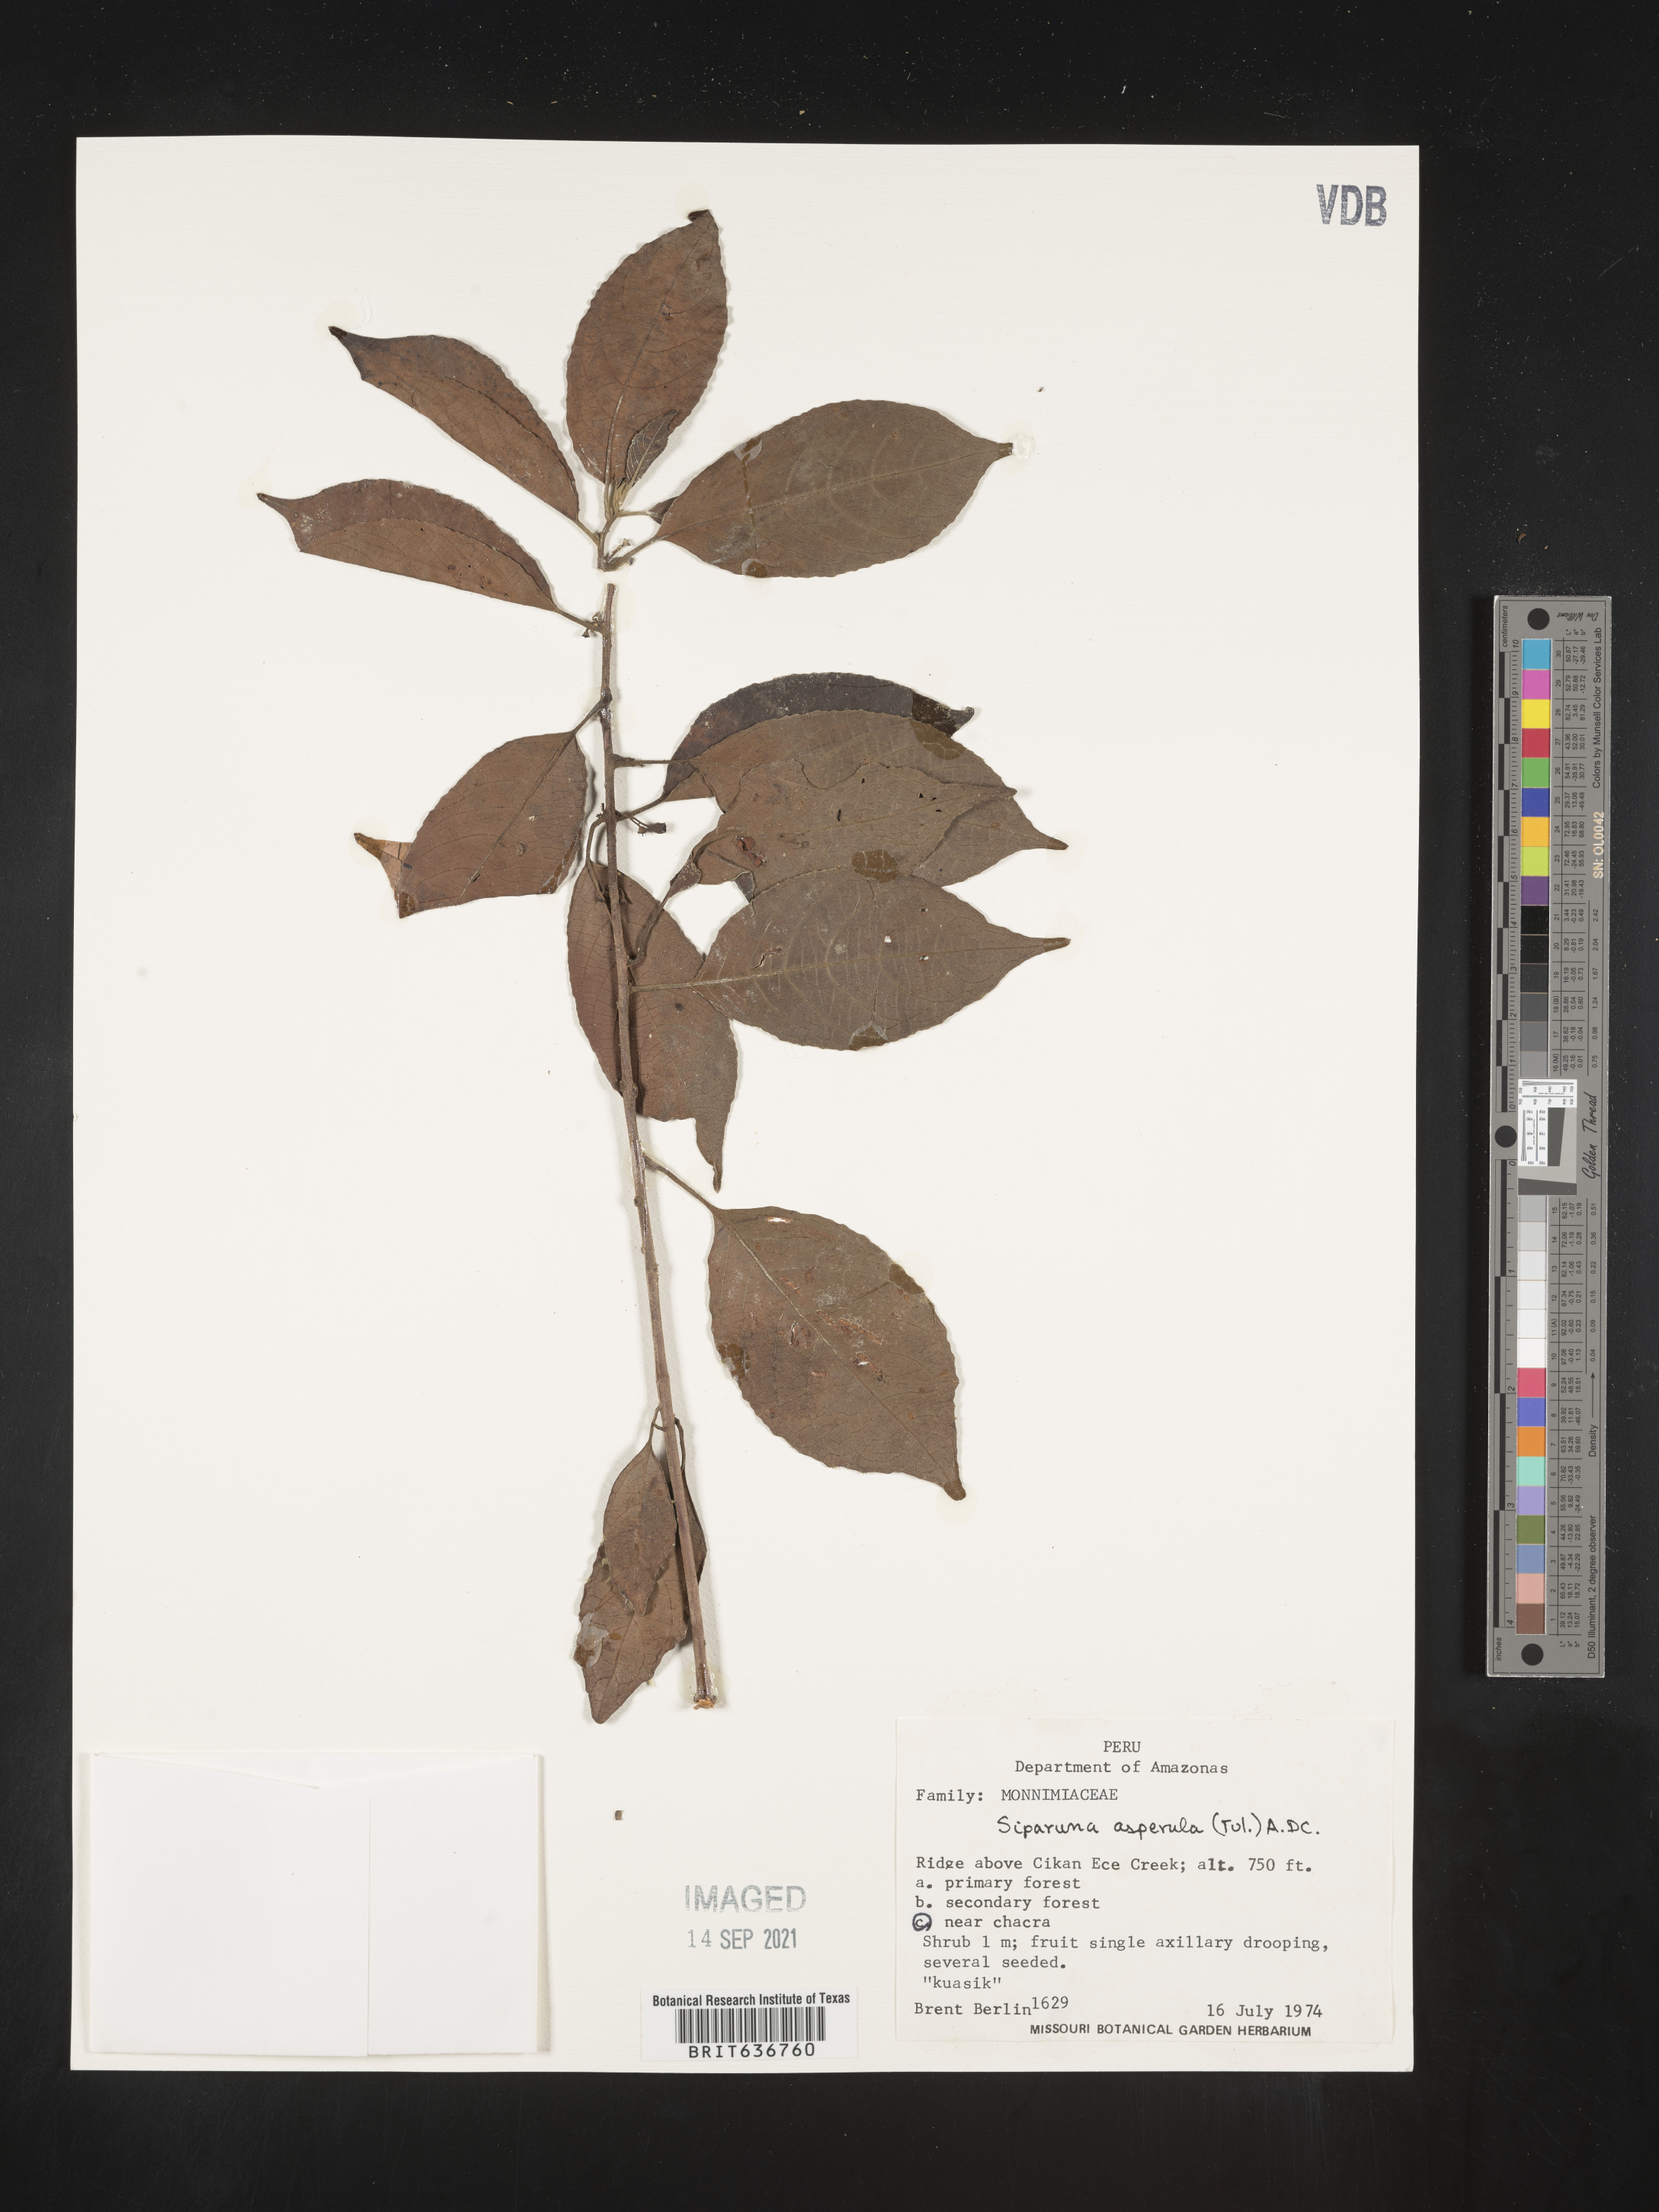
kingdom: Plantae
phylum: Tracheophyta
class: Magnoliopsida
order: Laurales
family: Siparunaceae
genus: Siparuna
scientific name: Siparuna
